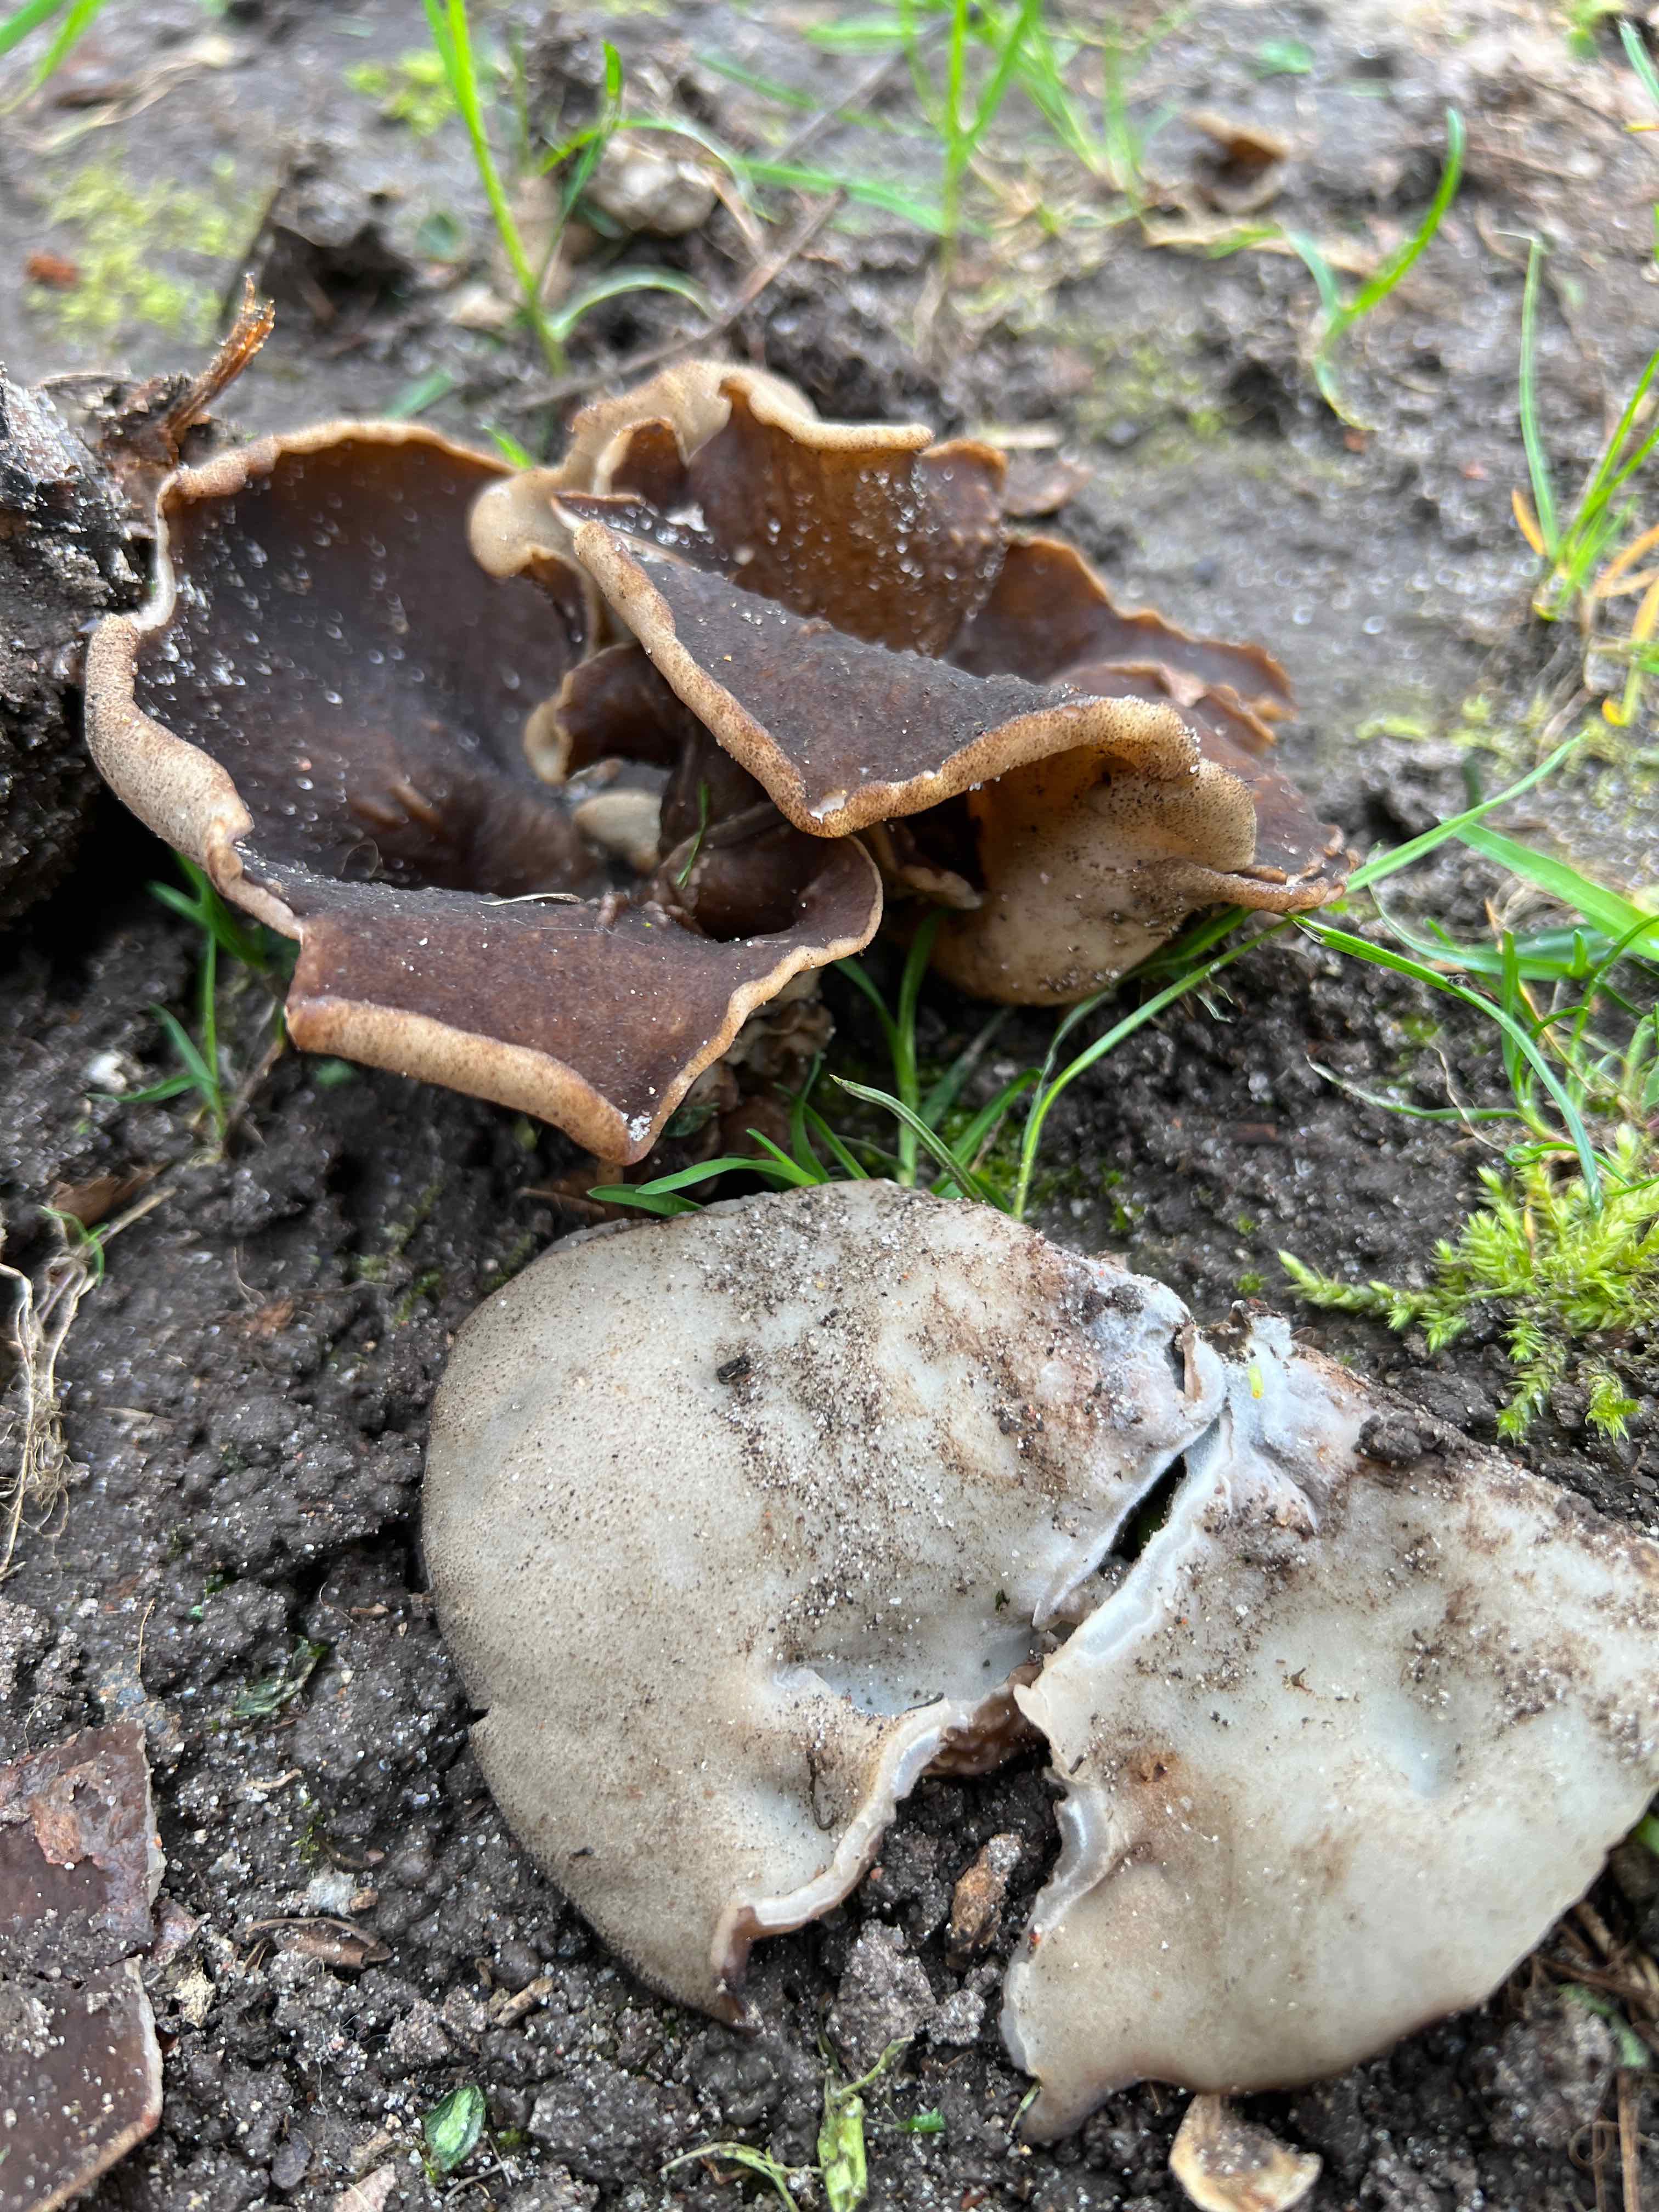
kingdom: Fungi
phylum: Ascomycota
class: Pezizomycetes
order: Pezizales
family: Morchellaceae
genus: Disciotis
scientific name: Disciotis venosa
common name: klor-bægermorkel
